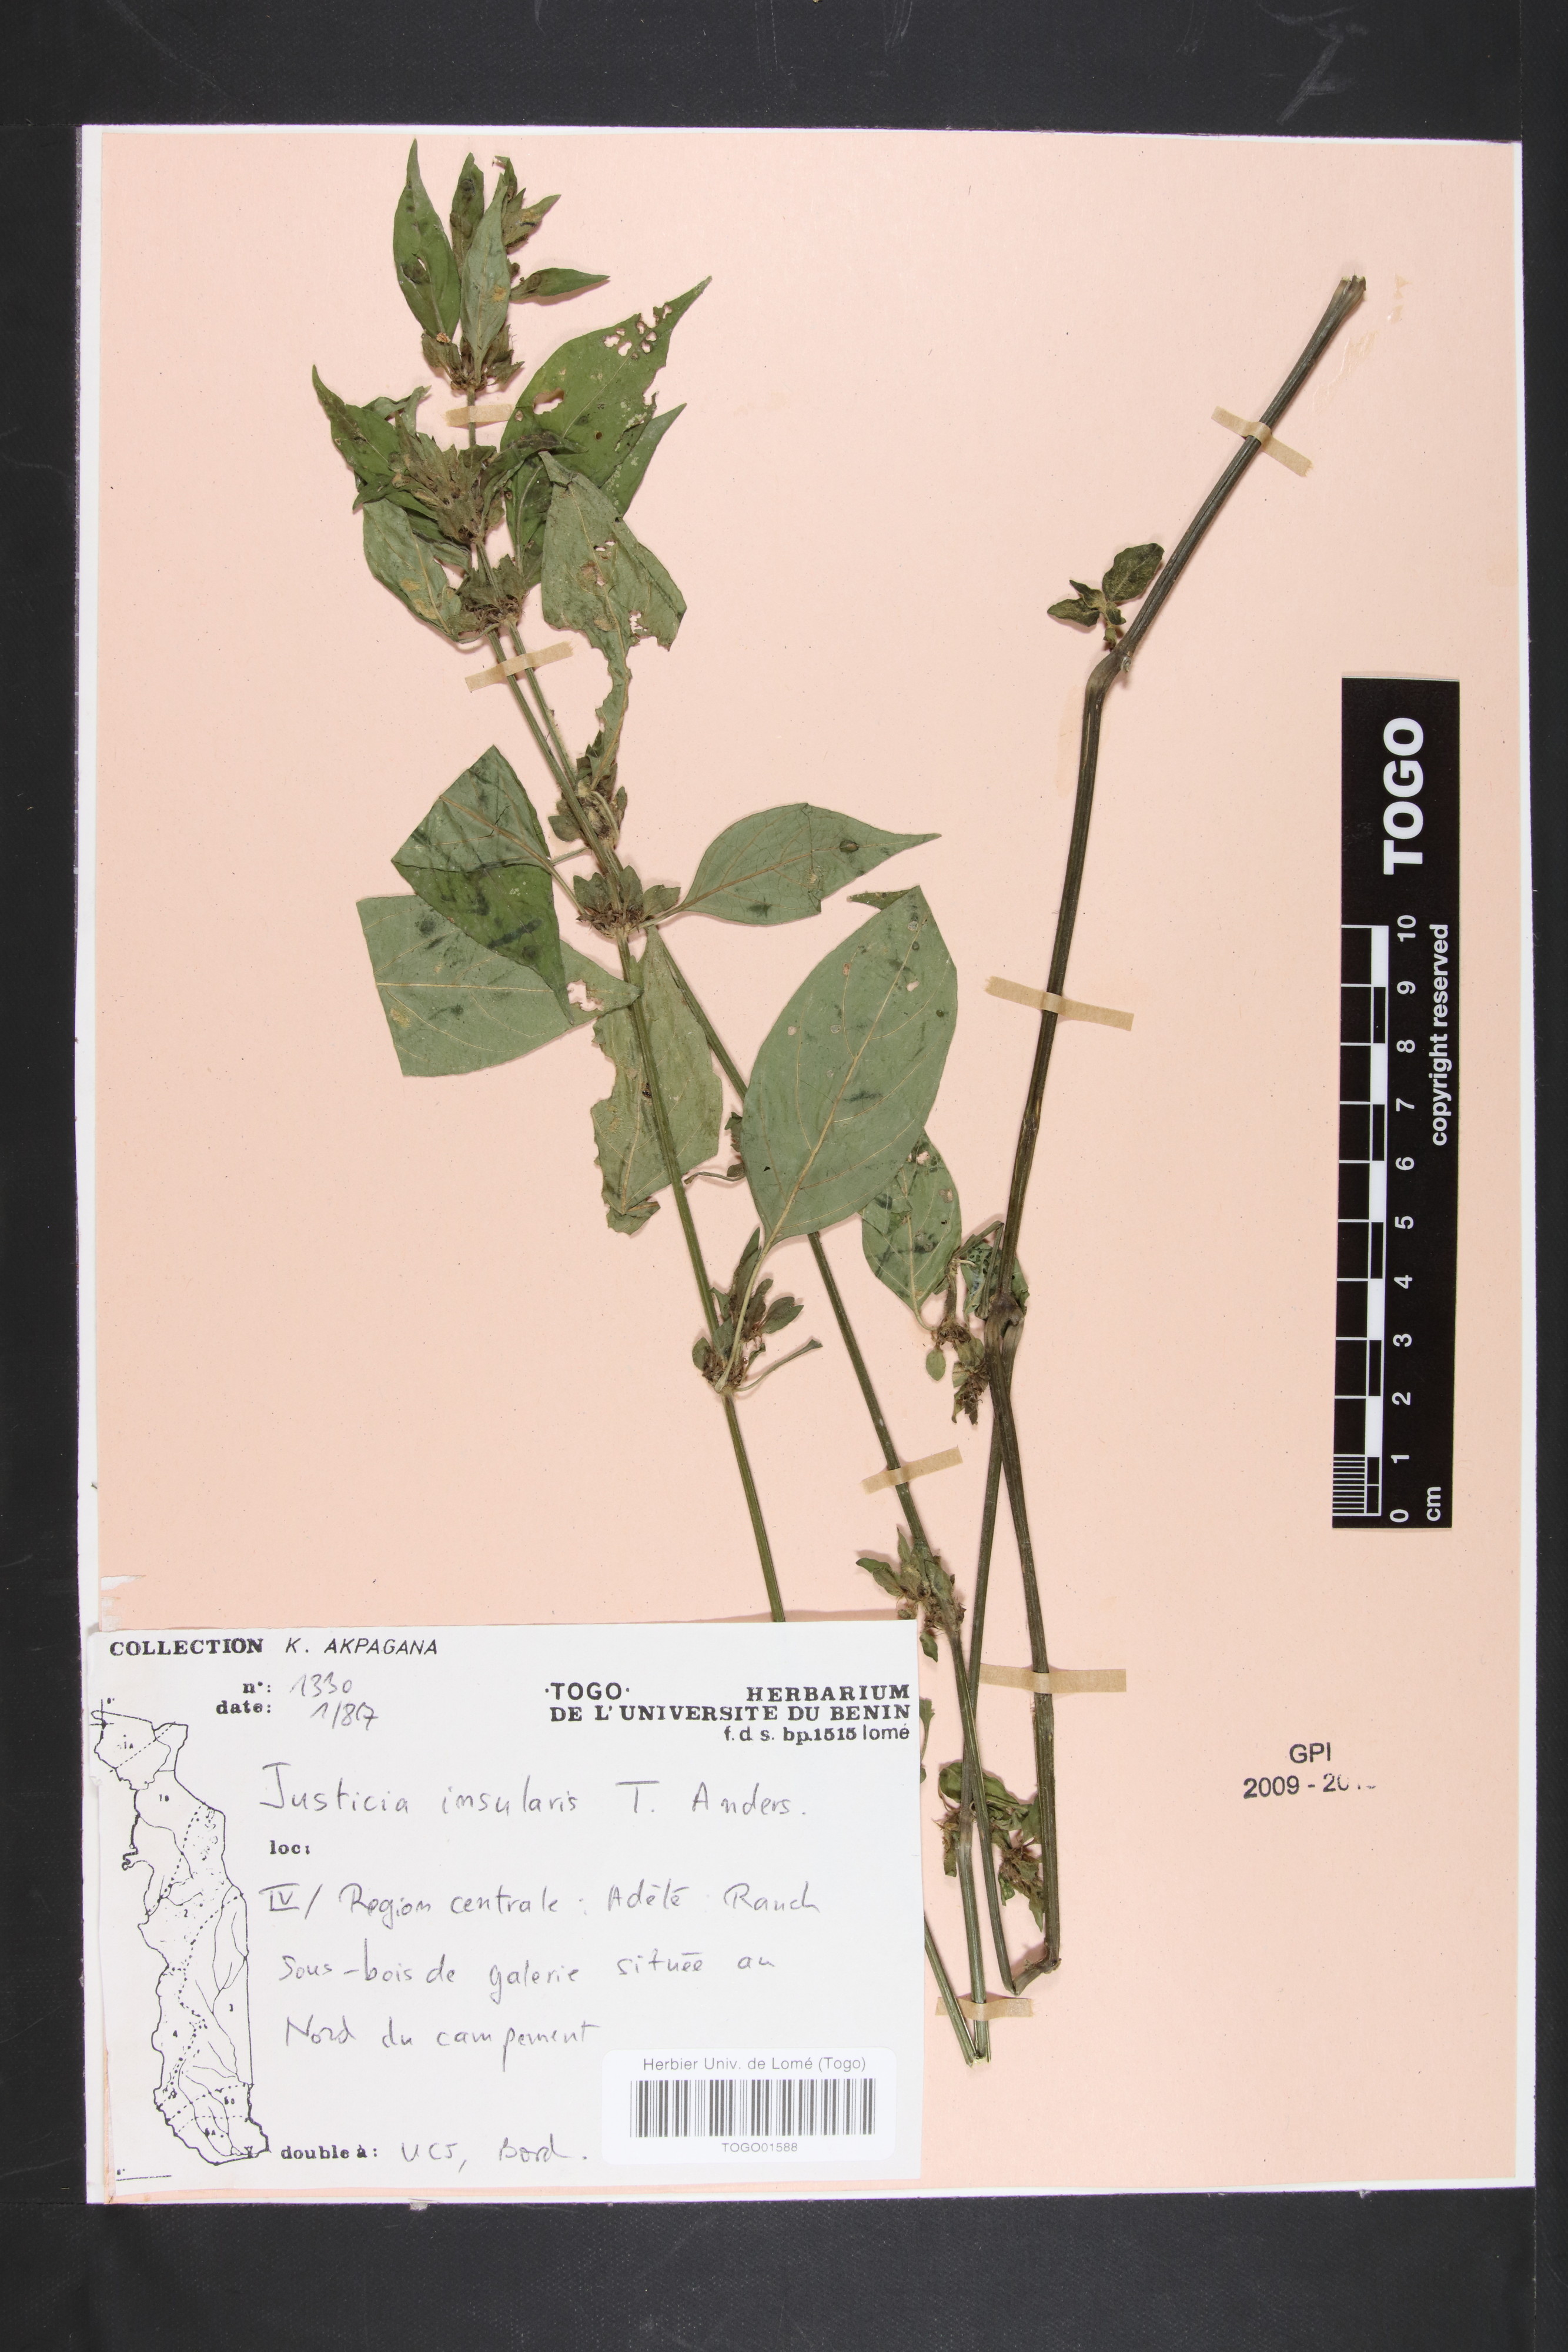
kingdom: Plantae
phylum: Tracheophyta
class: Magnoliopsida
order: Lamiales
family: Acanthaceae
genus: Justicia
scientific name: Justicia insularis
